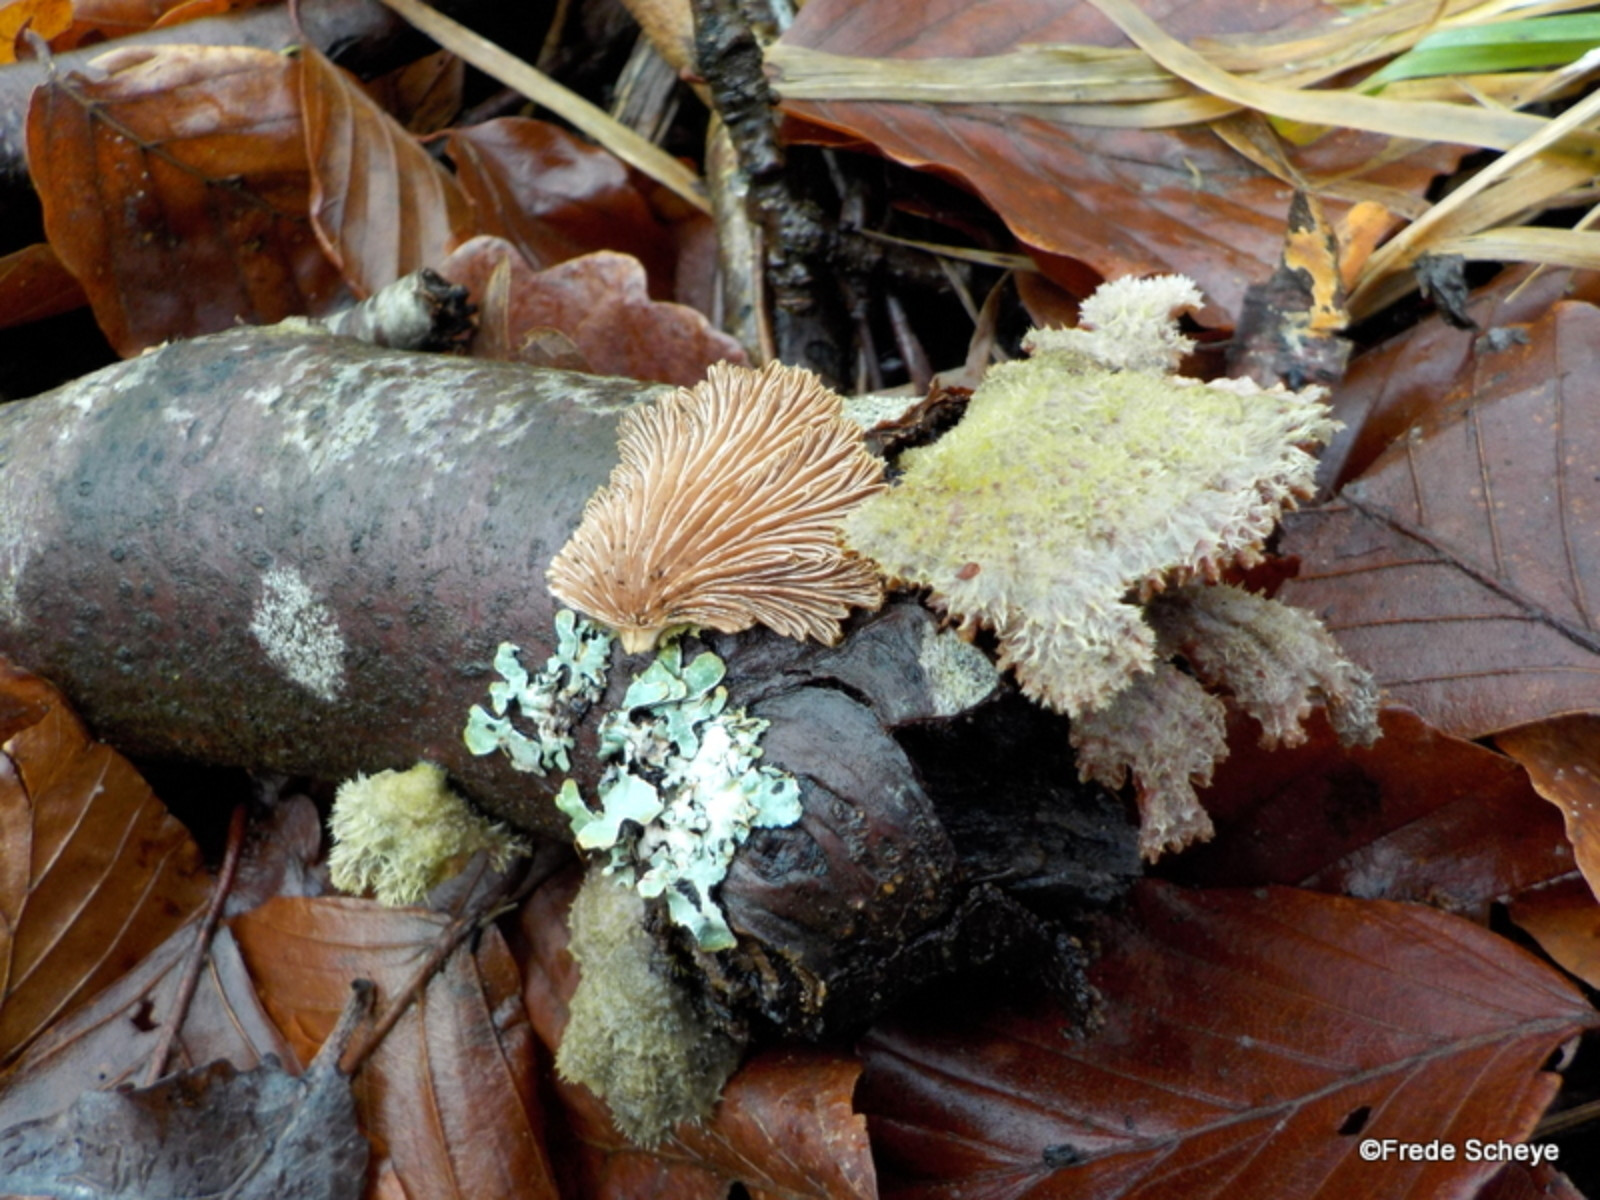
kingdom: Fungi
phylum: Basidiomycota
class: Agaricomycetes
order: Agaricales
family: Schizophyllaceae
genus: Schizophyllum
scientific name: Schizophyllum commune
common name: kløvblad
